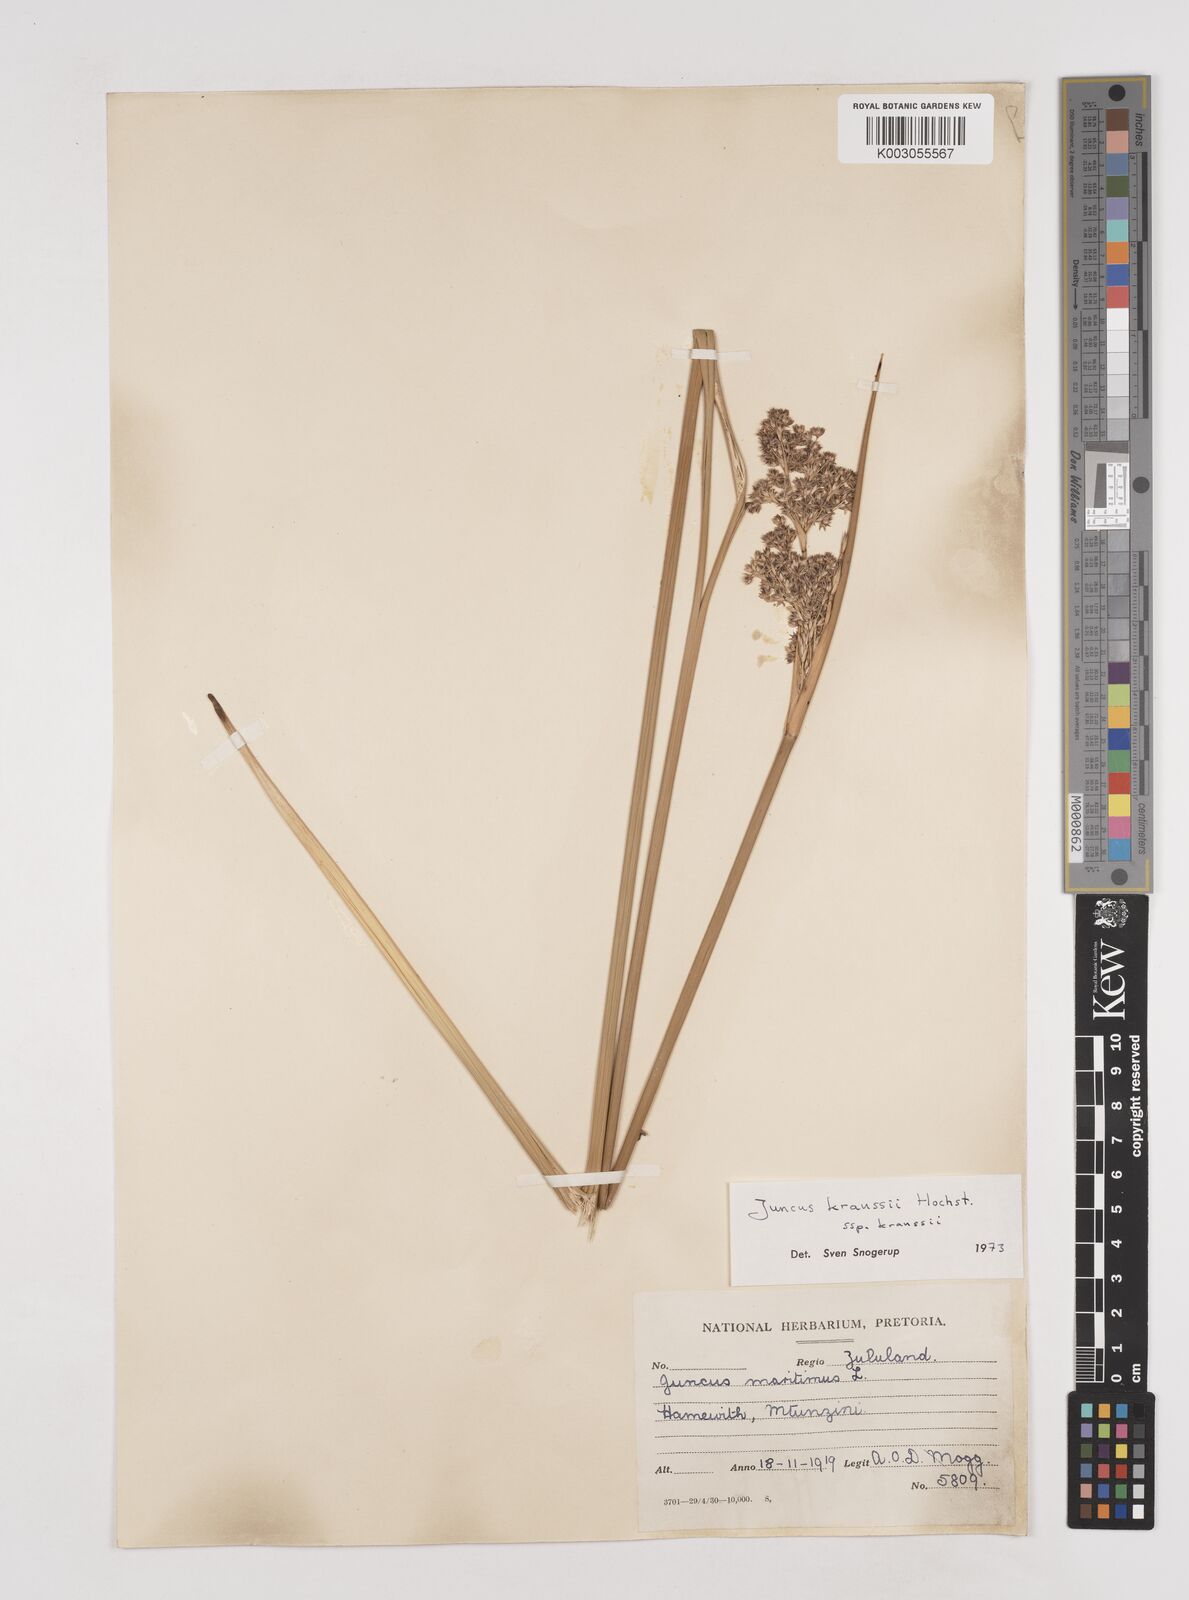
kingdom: Plantae
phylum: Tracheophyta
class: Liliopsida
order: Poales
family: Juncaceae
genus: Juncus
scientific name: Juncus kraussii
